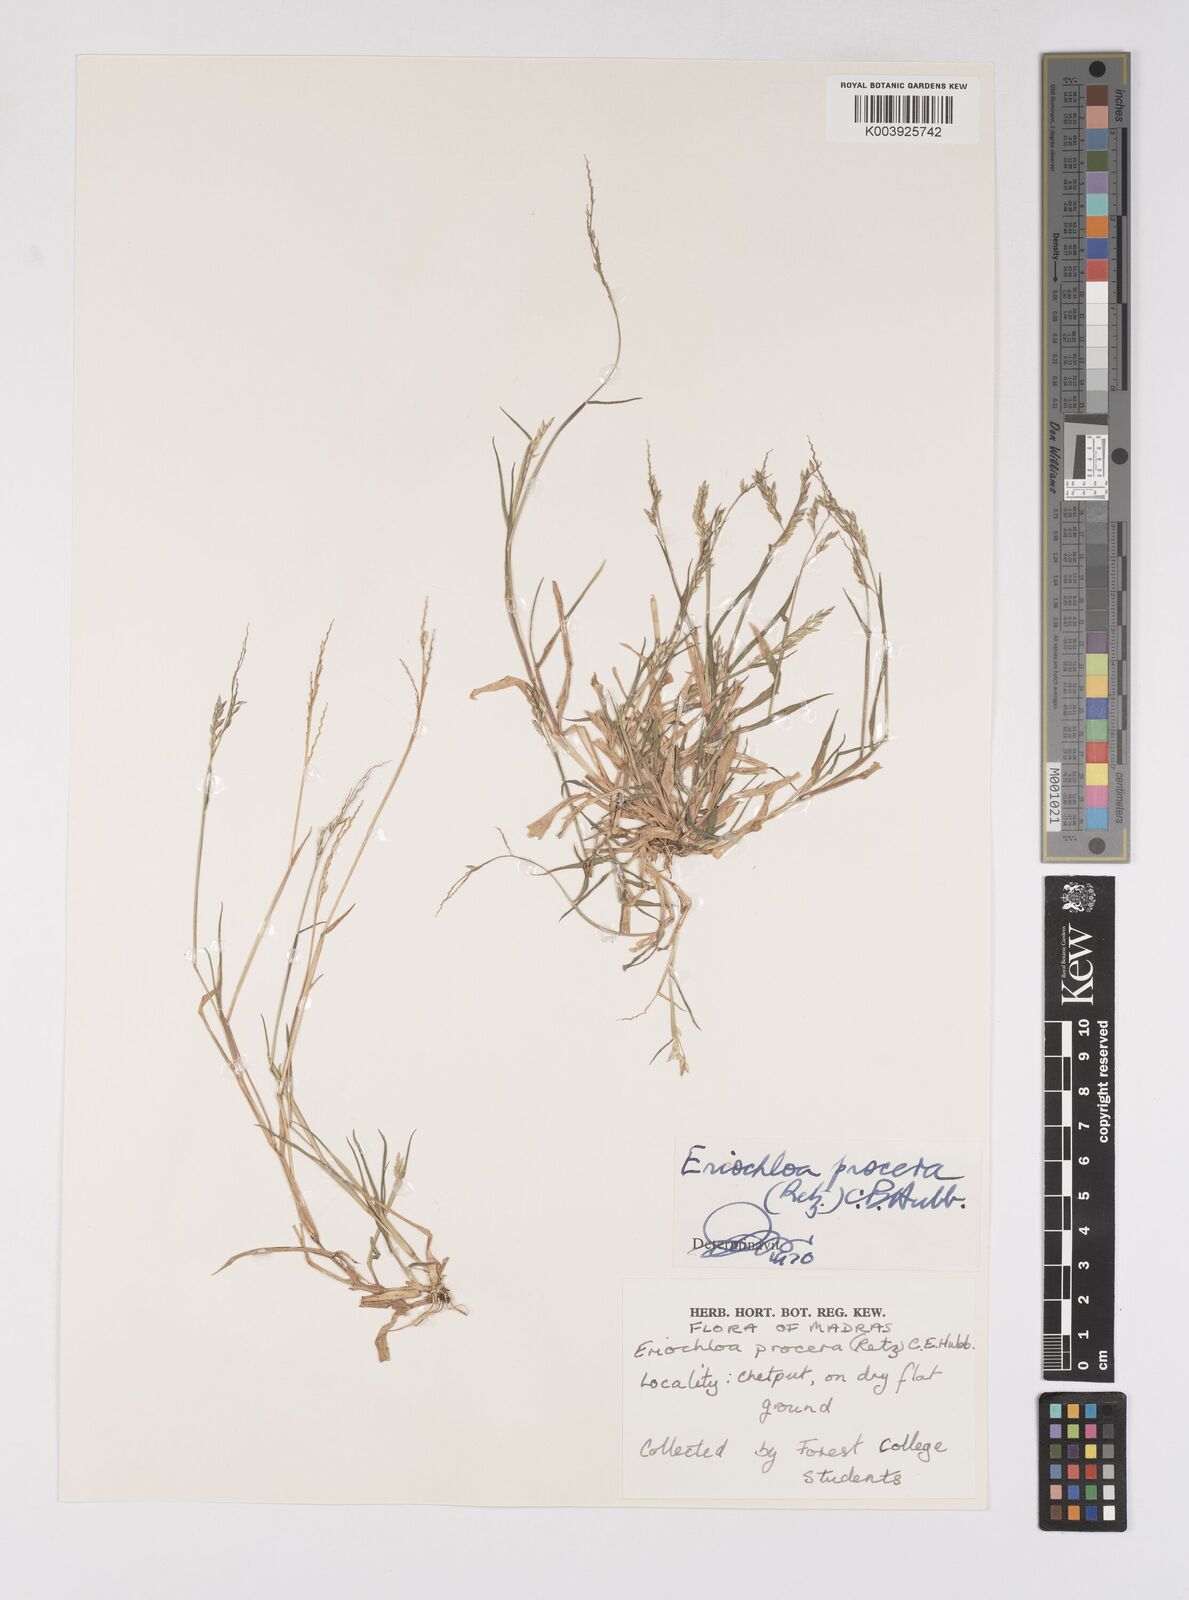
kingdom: Plantae
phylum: Tracheophyta
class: Liliopsida
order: Poales
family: Poaceae
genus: Eriochloa
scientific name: Eriochloa procera
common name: Spring grass
